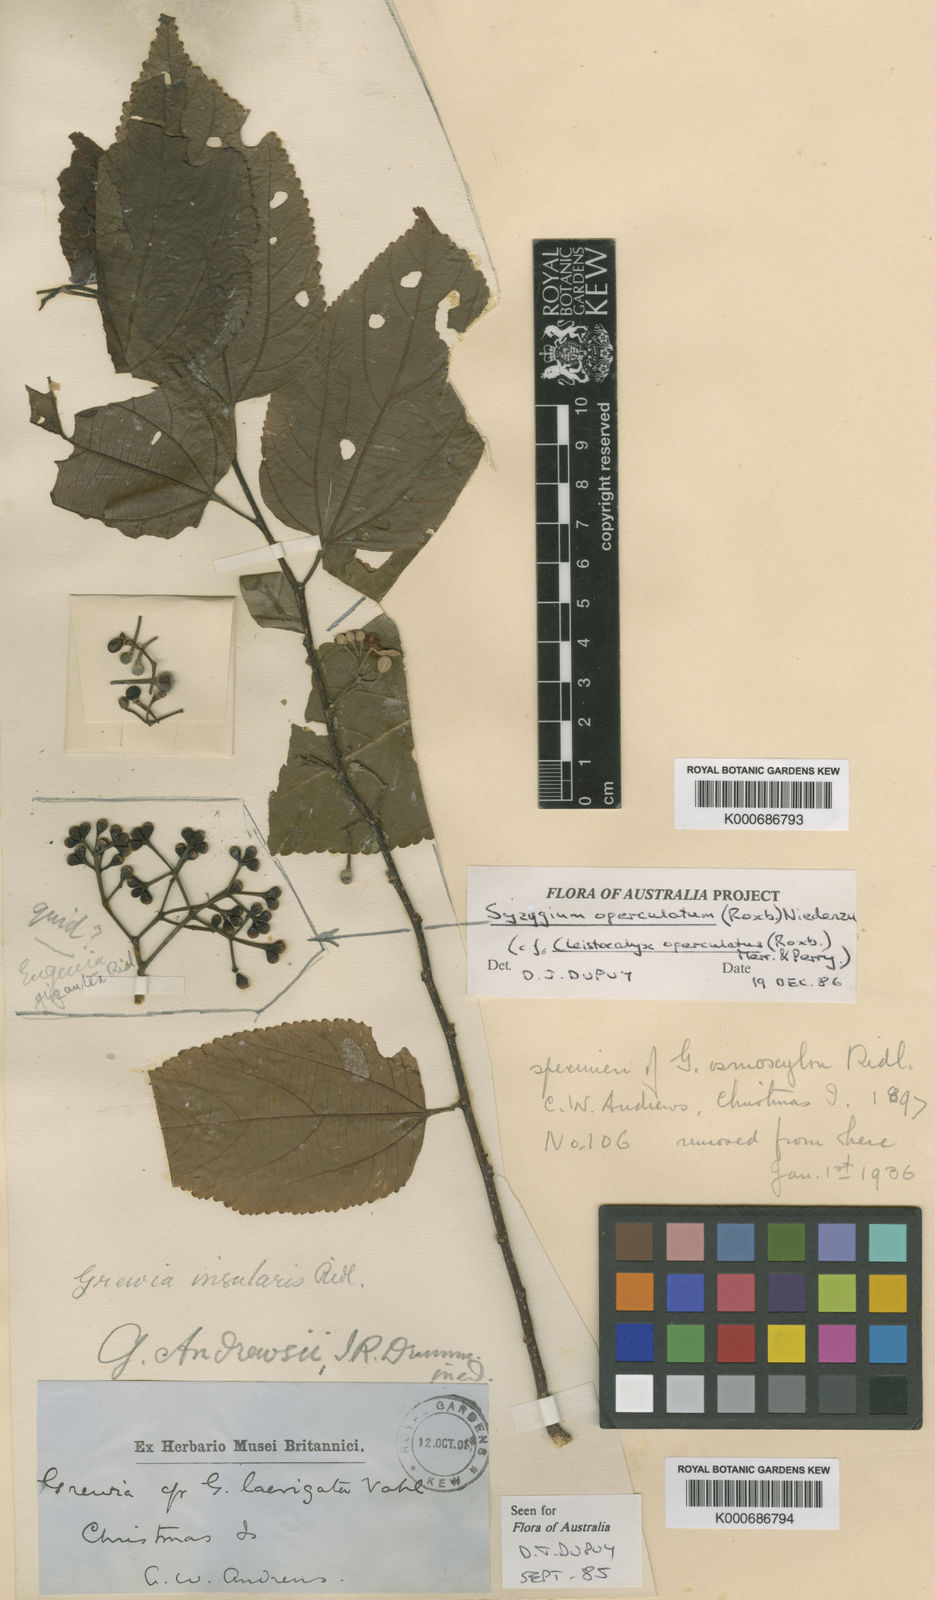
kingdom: Plantae
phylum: Tracheophyta
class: Magnoliopsida
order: Malvales
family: Malvaceae
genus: Grewia
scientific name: Grewia insularis
